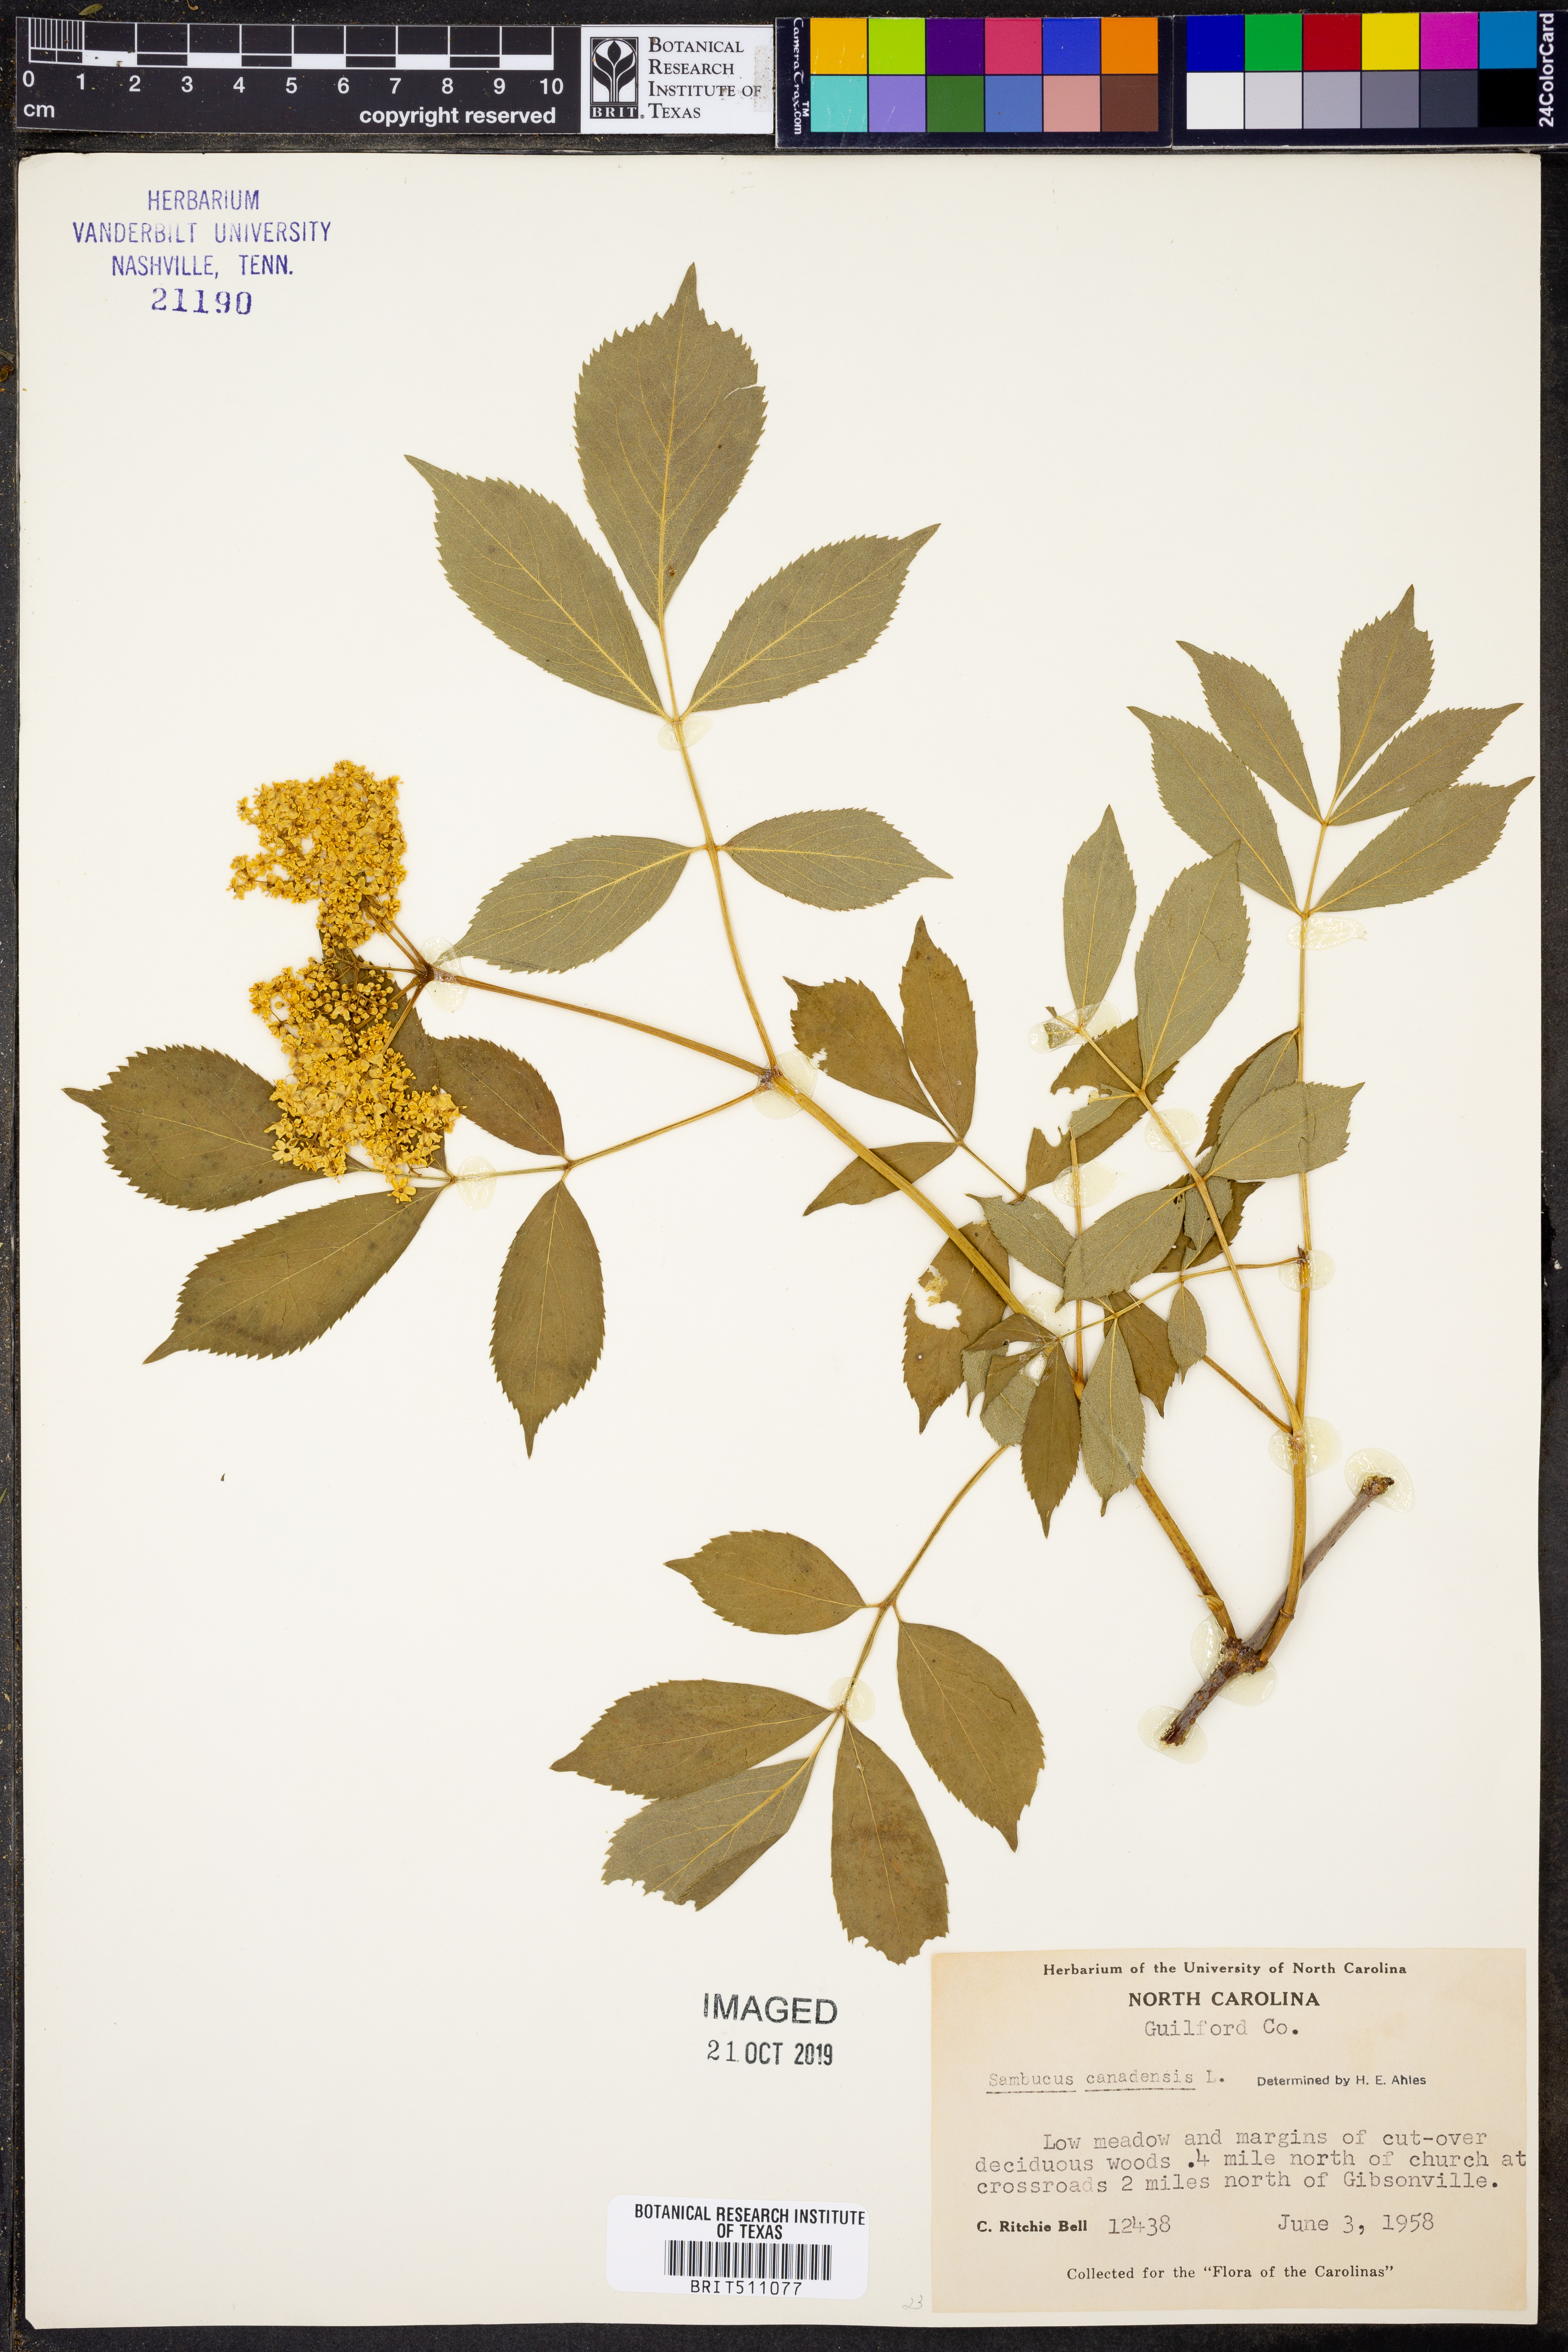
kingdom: Plantae
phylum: Tracheophyta
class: Magnoliopsida
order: Dipsacales
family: Viburnaceae
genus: Sambucus
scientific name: Sambucus canadensis
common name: American elder
